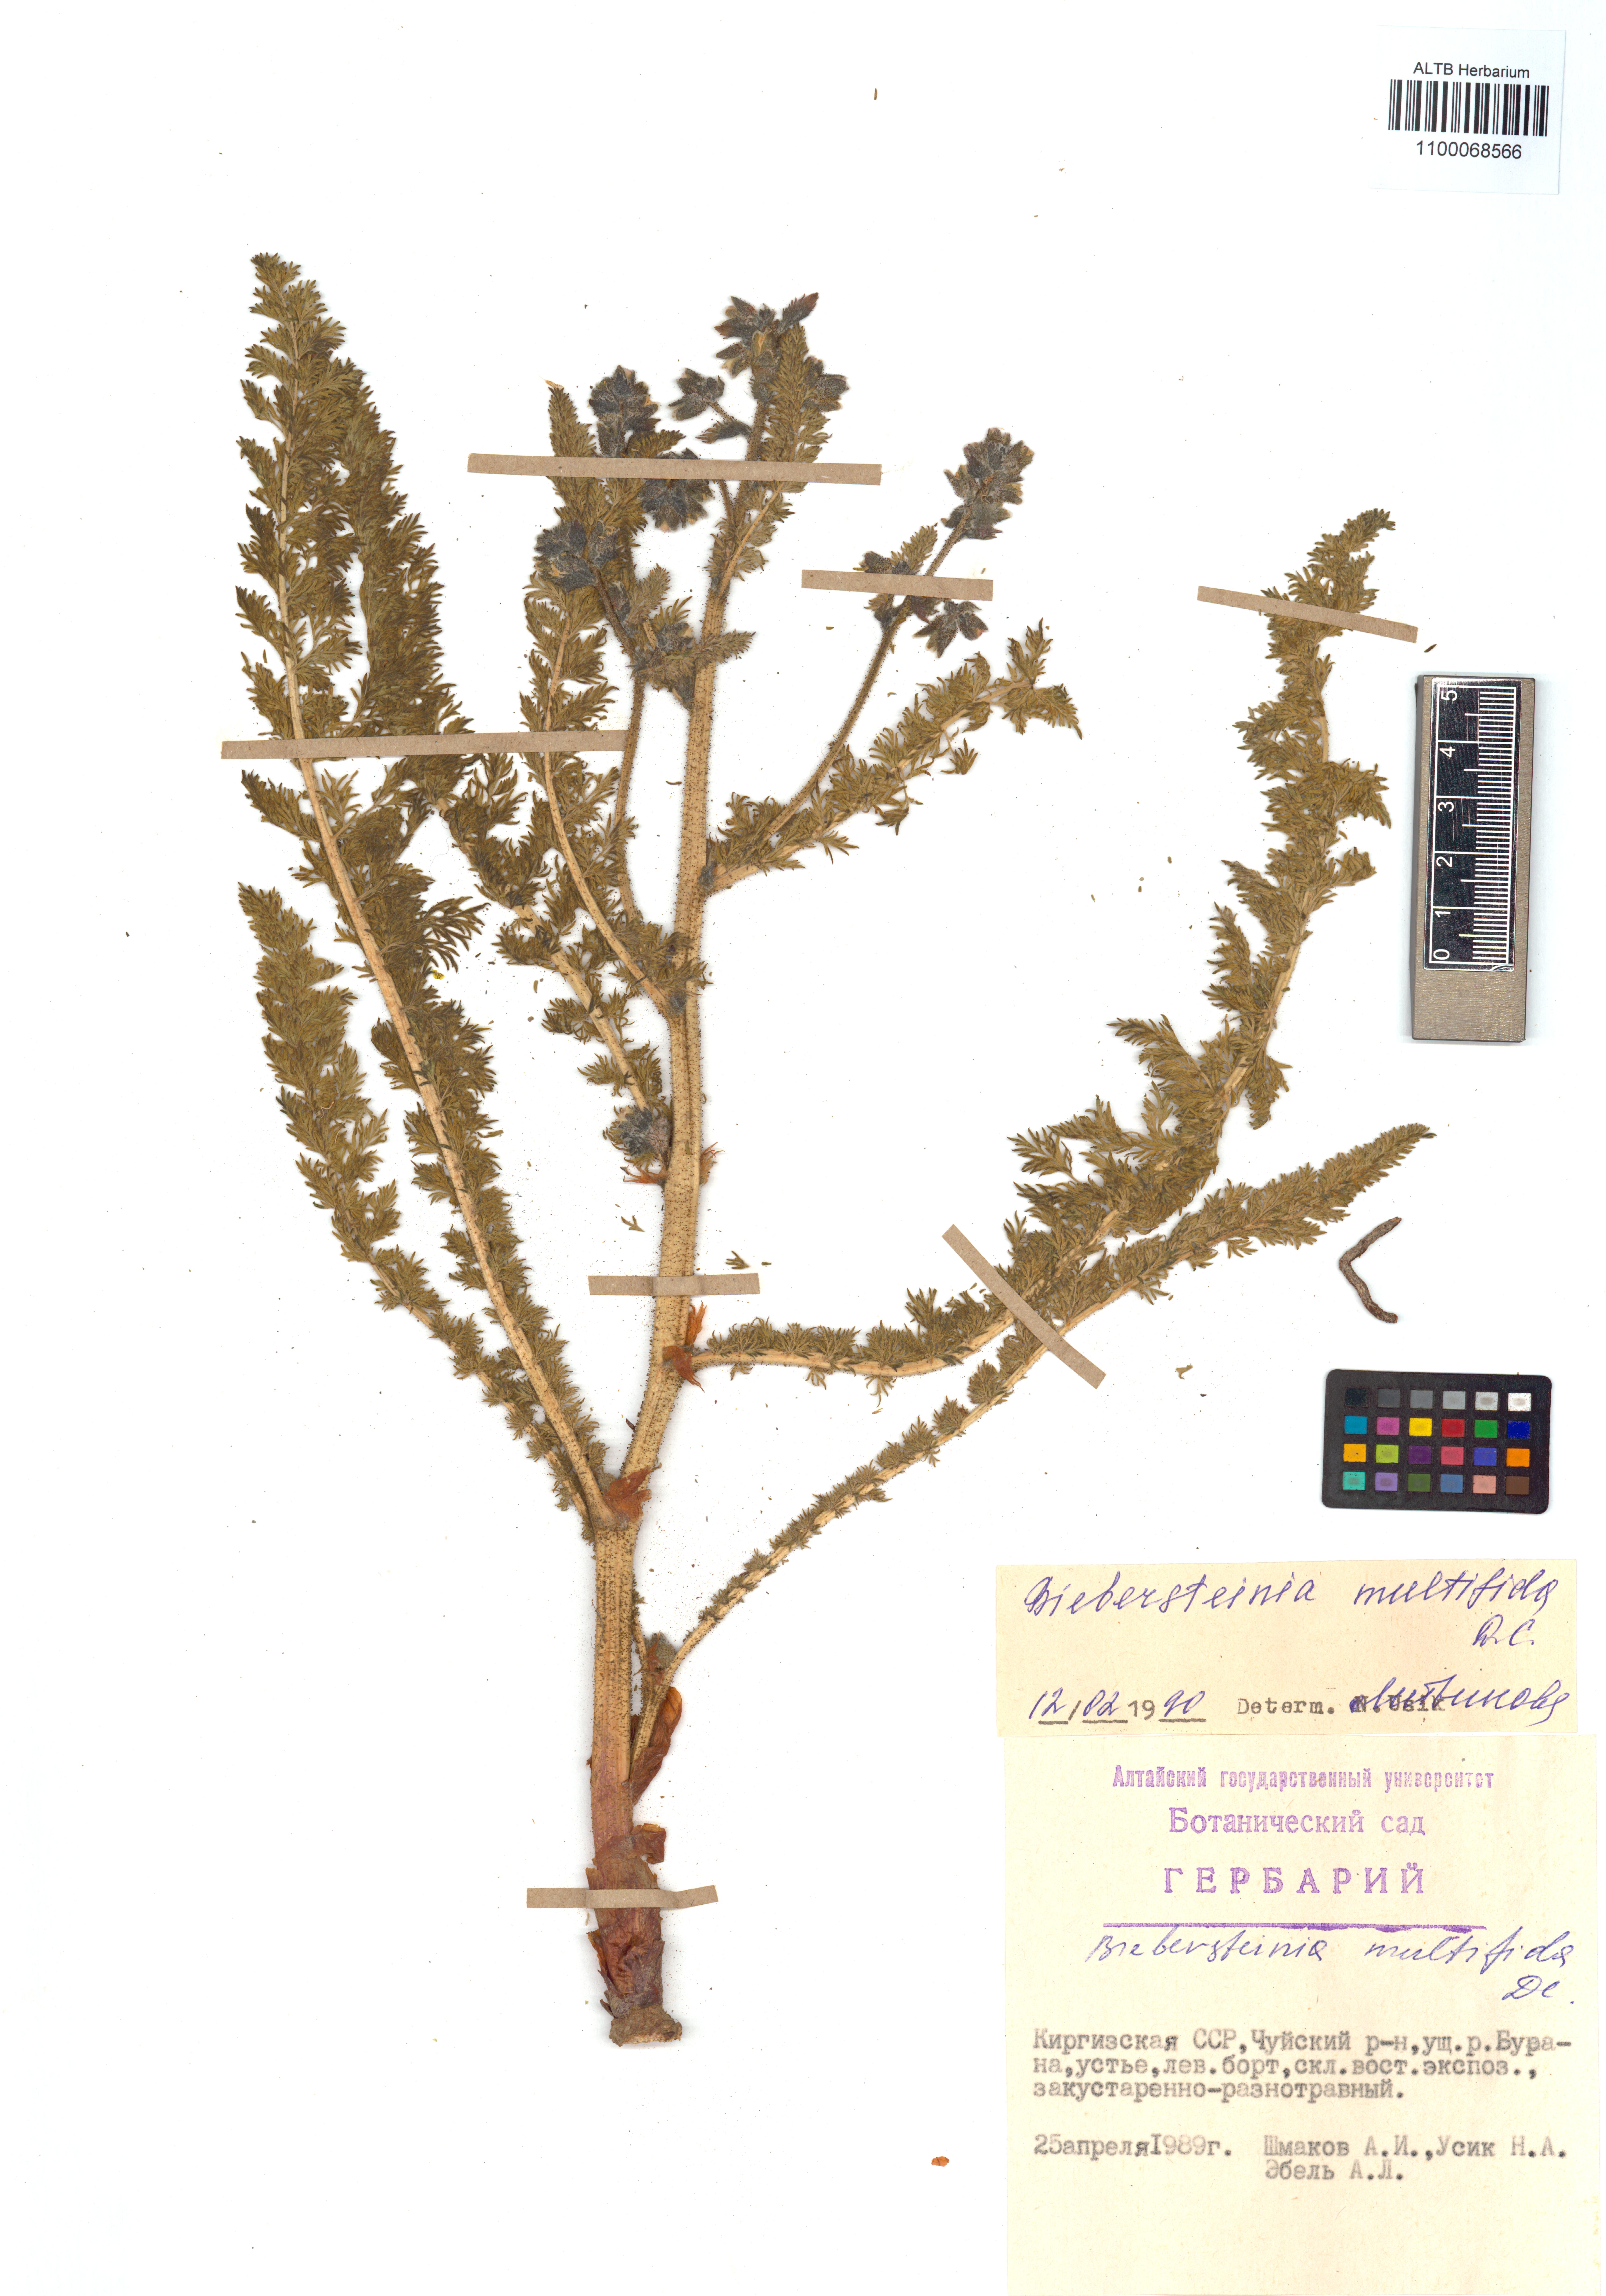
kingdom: Plantae
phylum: Tracheophyta
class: Magnoliopsida
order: Sapindales
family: Biebersteiniaceae
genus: Biebersteinia
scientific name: Biebersteinia multifida
